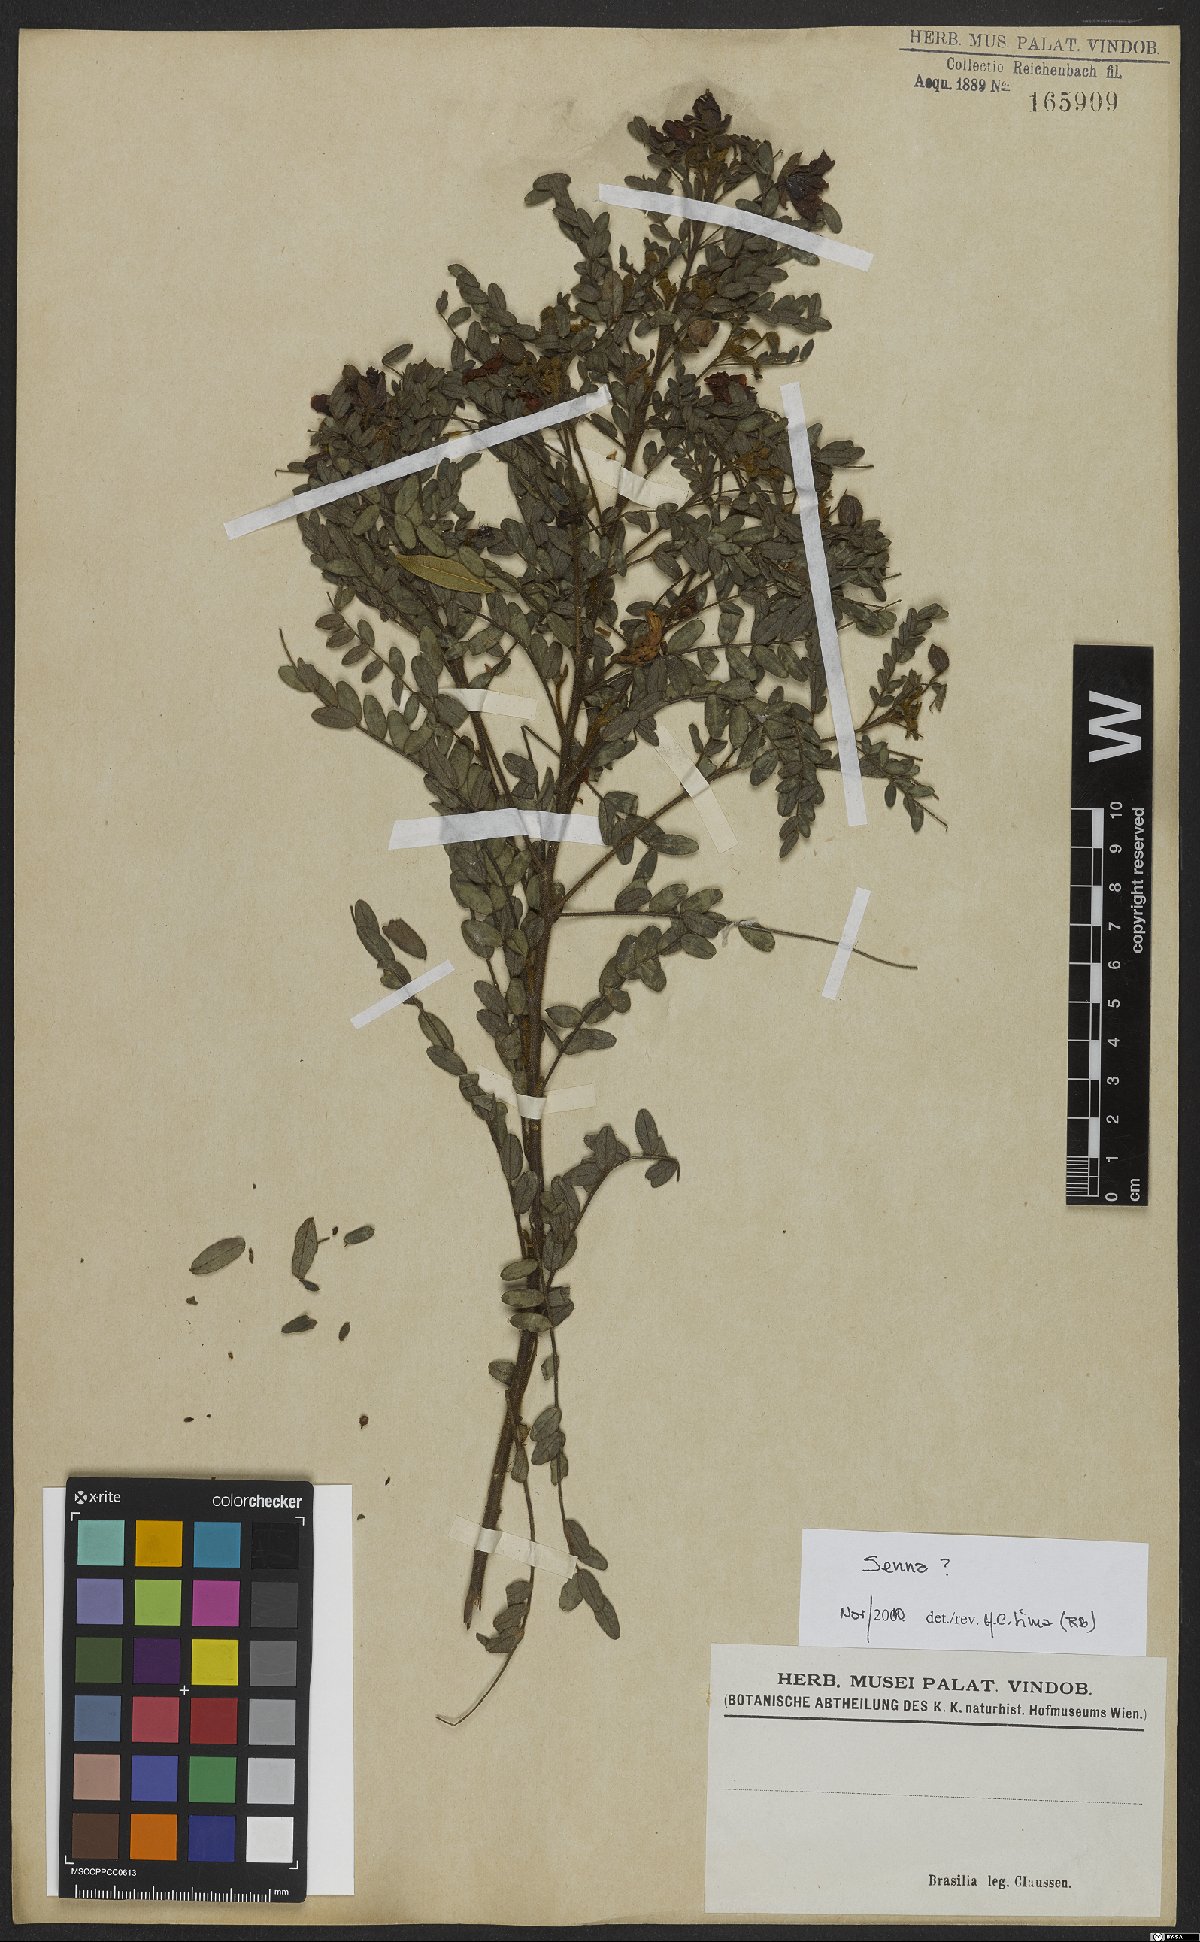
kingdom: Plantae
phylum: Tracheophyta
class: Magnoliopsida
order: Fabales
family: Fabaceae
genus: Senna
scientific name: Senna
